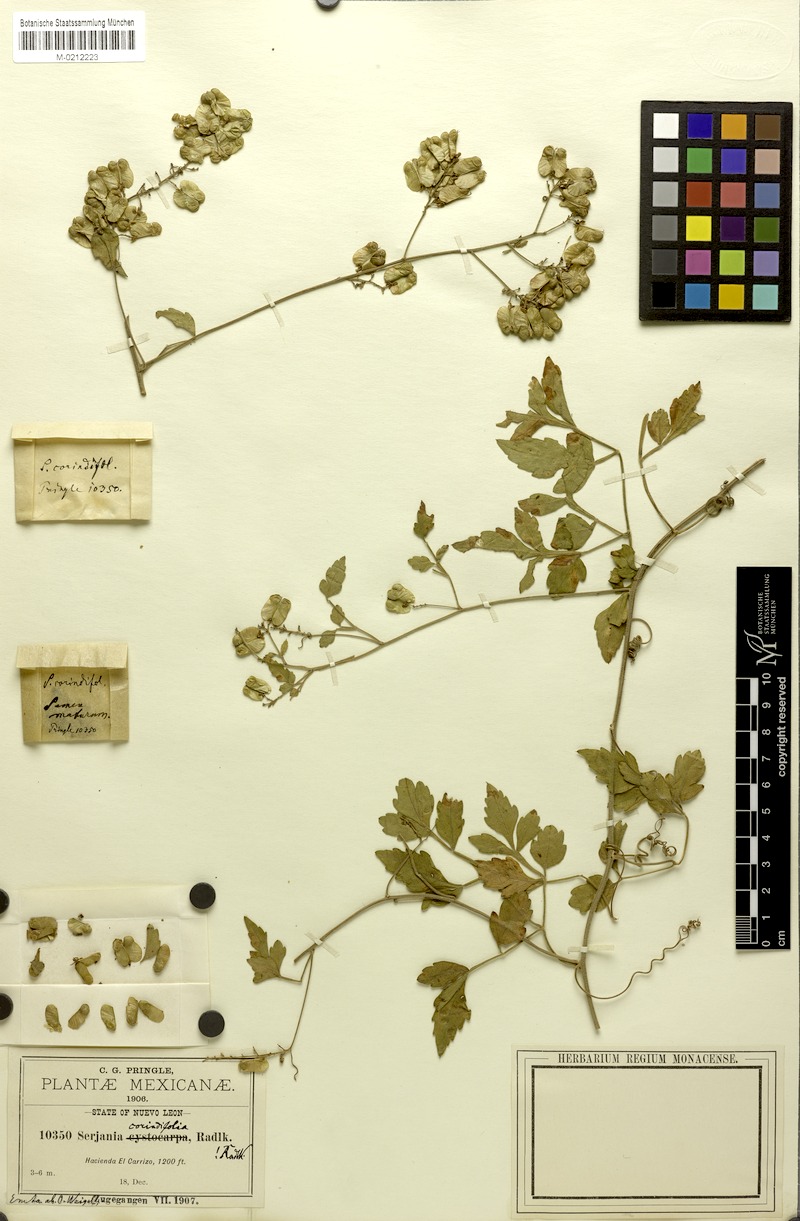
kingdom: Plantae
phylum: Tracheophyta
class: Magnoliopsida
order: Sapindales
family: Sapindaceae
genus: Serjania
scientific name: Serjania corindifolia
